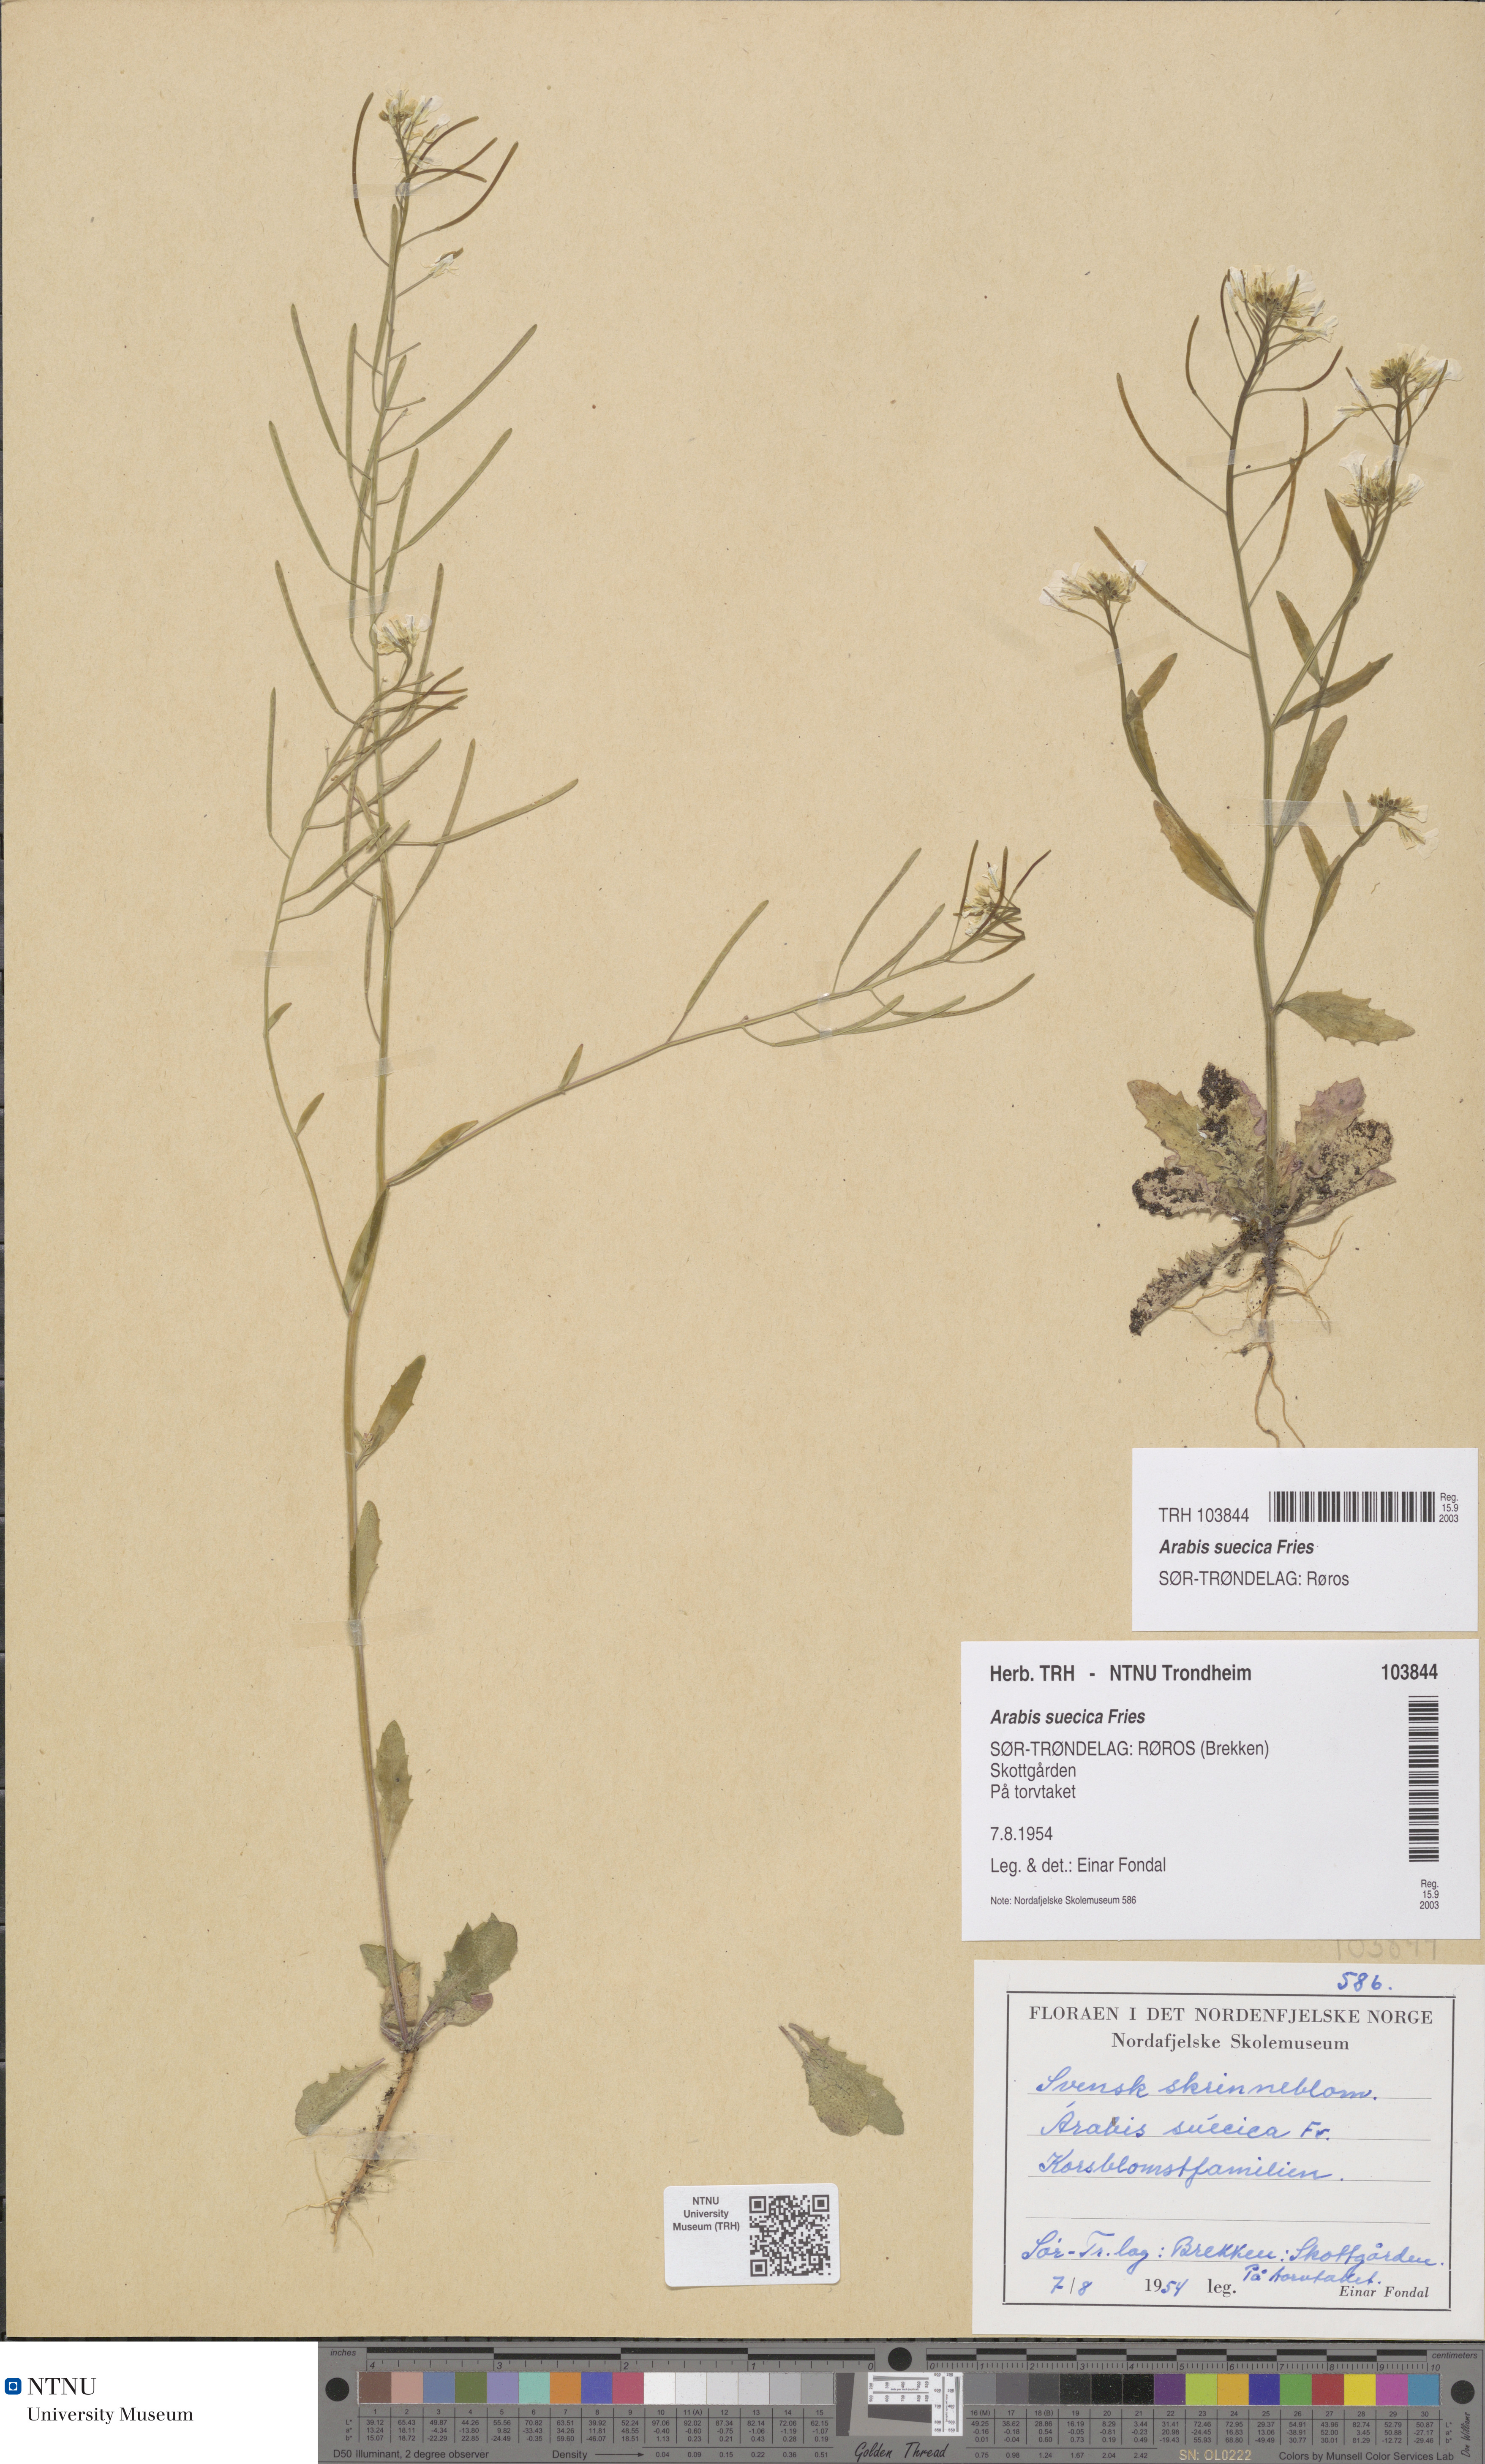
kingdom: Plantae
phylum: Tracheophyta
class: Magnoliopsida
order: Brassicales
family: Brassicaceae
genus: Arabidopsis
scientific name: Arabidopsis suecica
